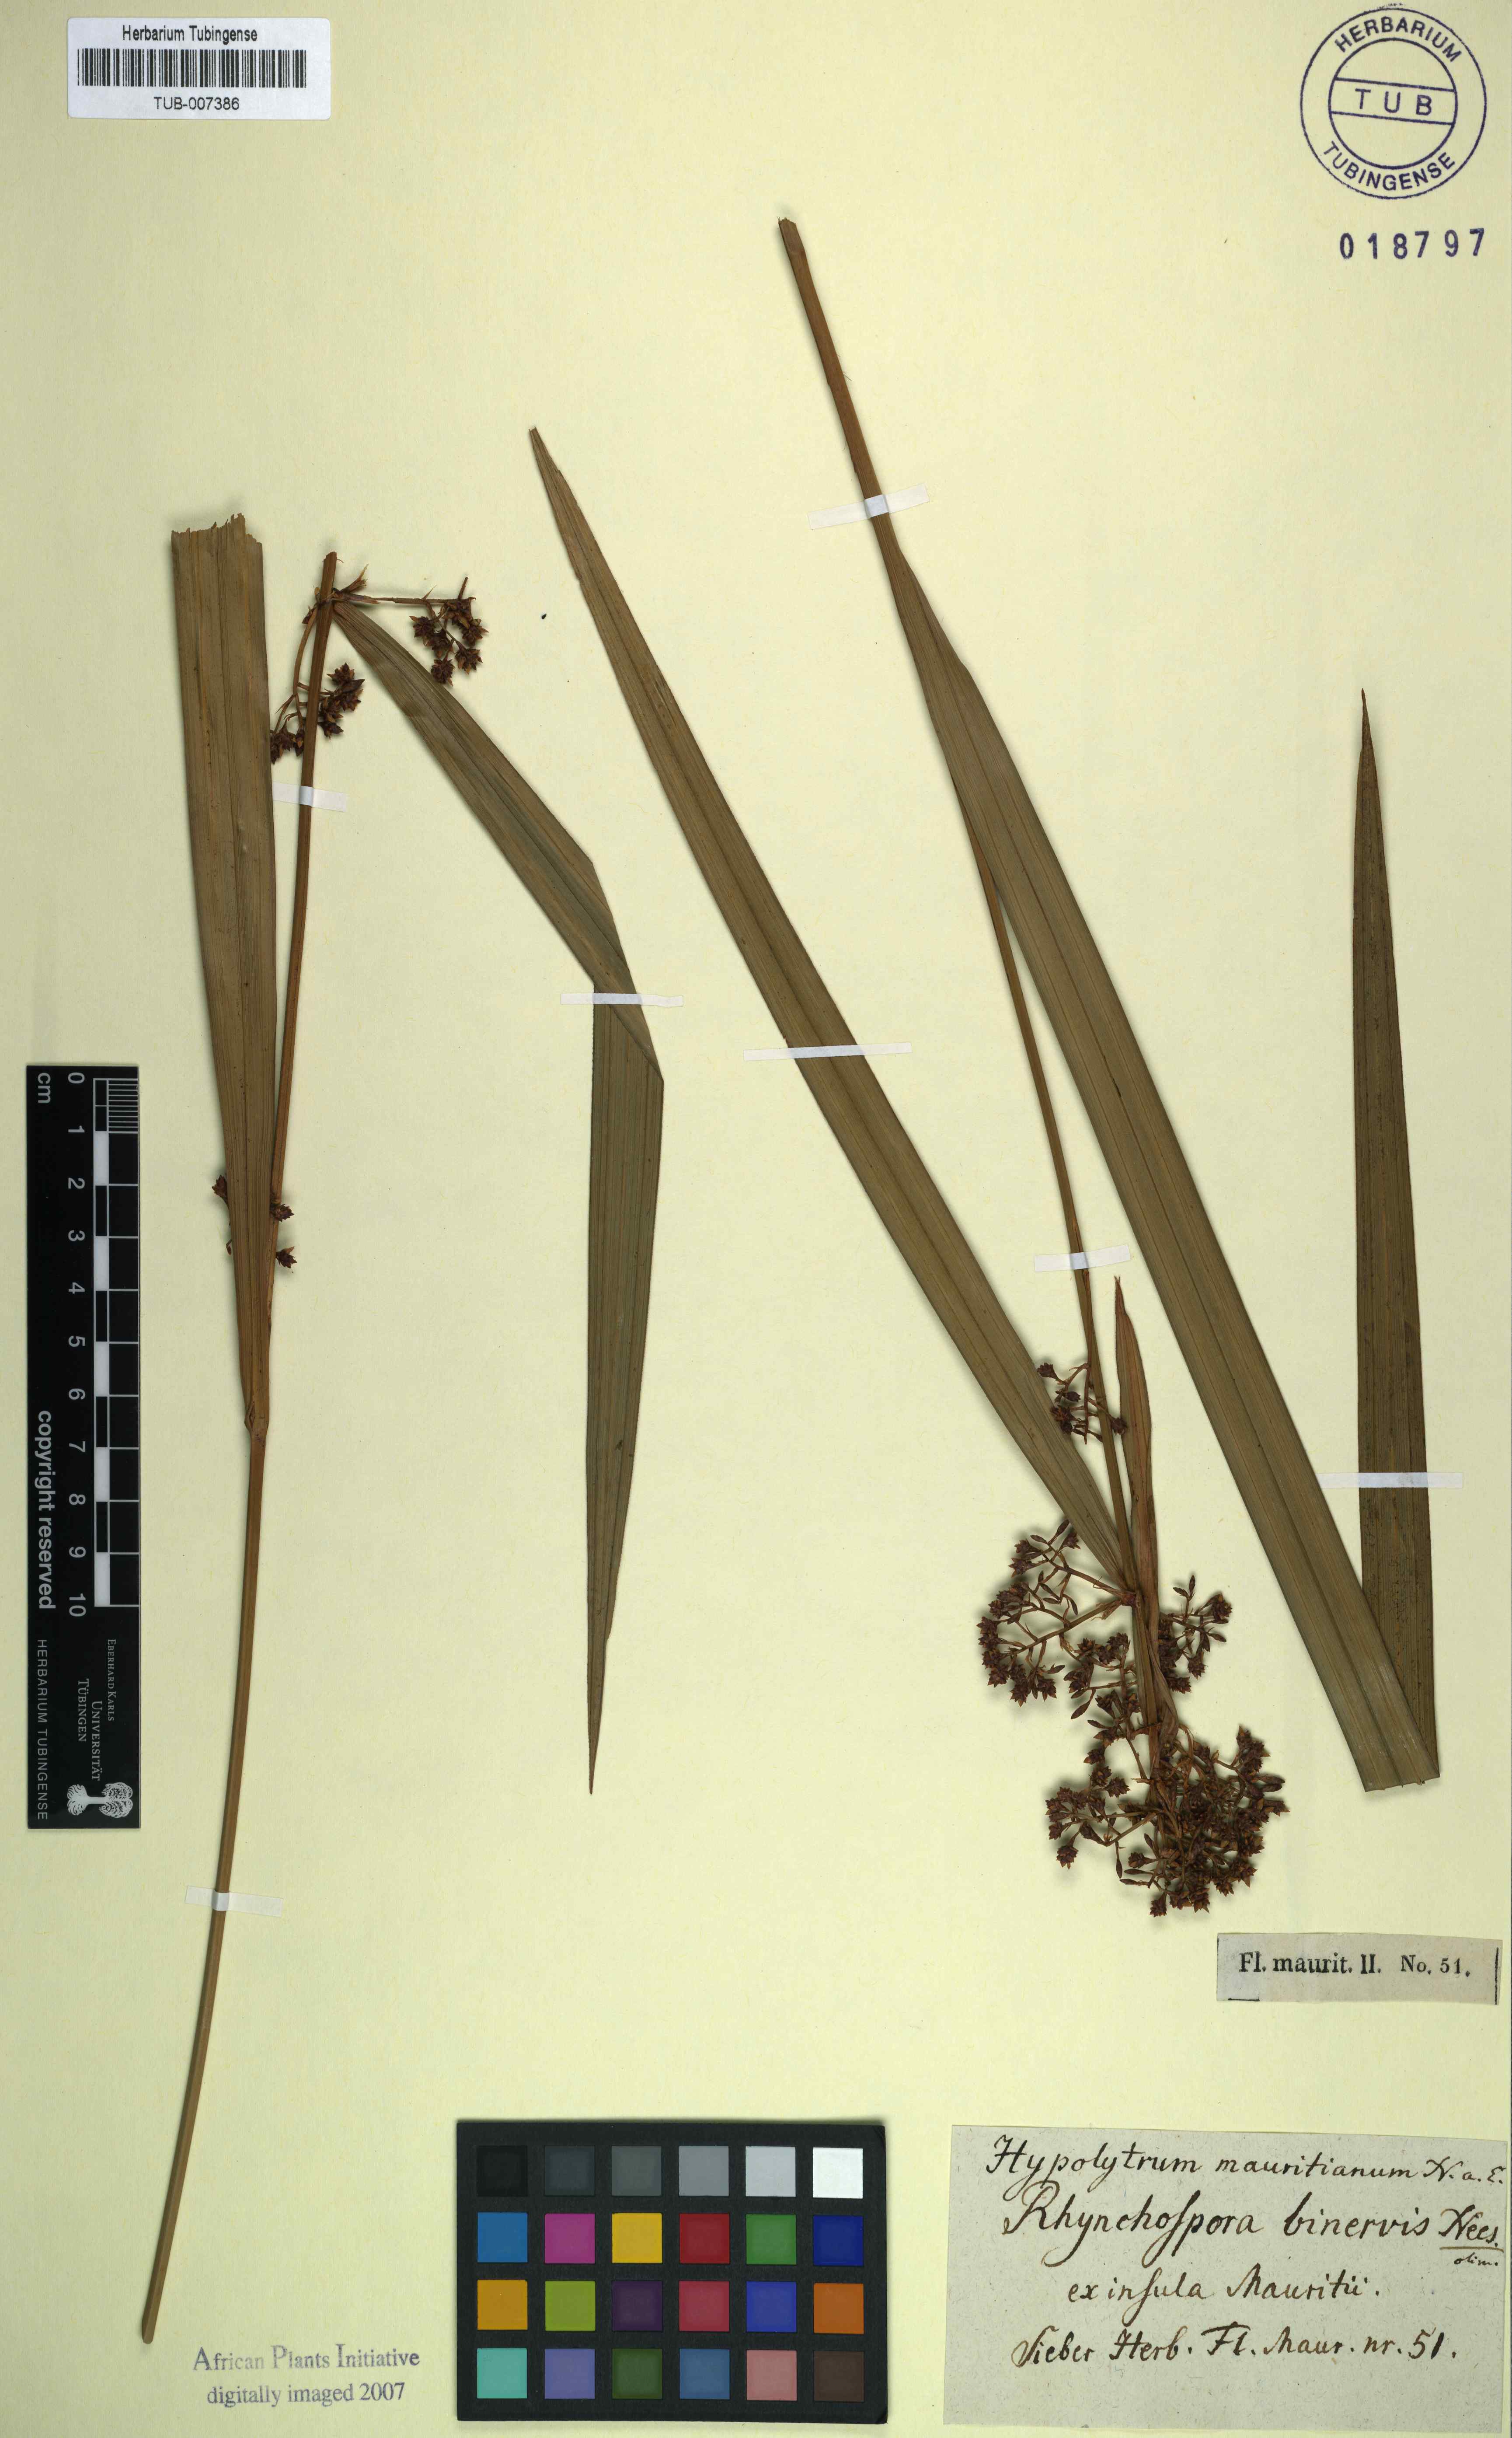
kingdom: Plantae
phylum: Tracheophyta
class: Liliopsida
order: Poales
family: Cyperaceae
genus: Hypolytrum
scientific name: Hypolytrum mauritianum
